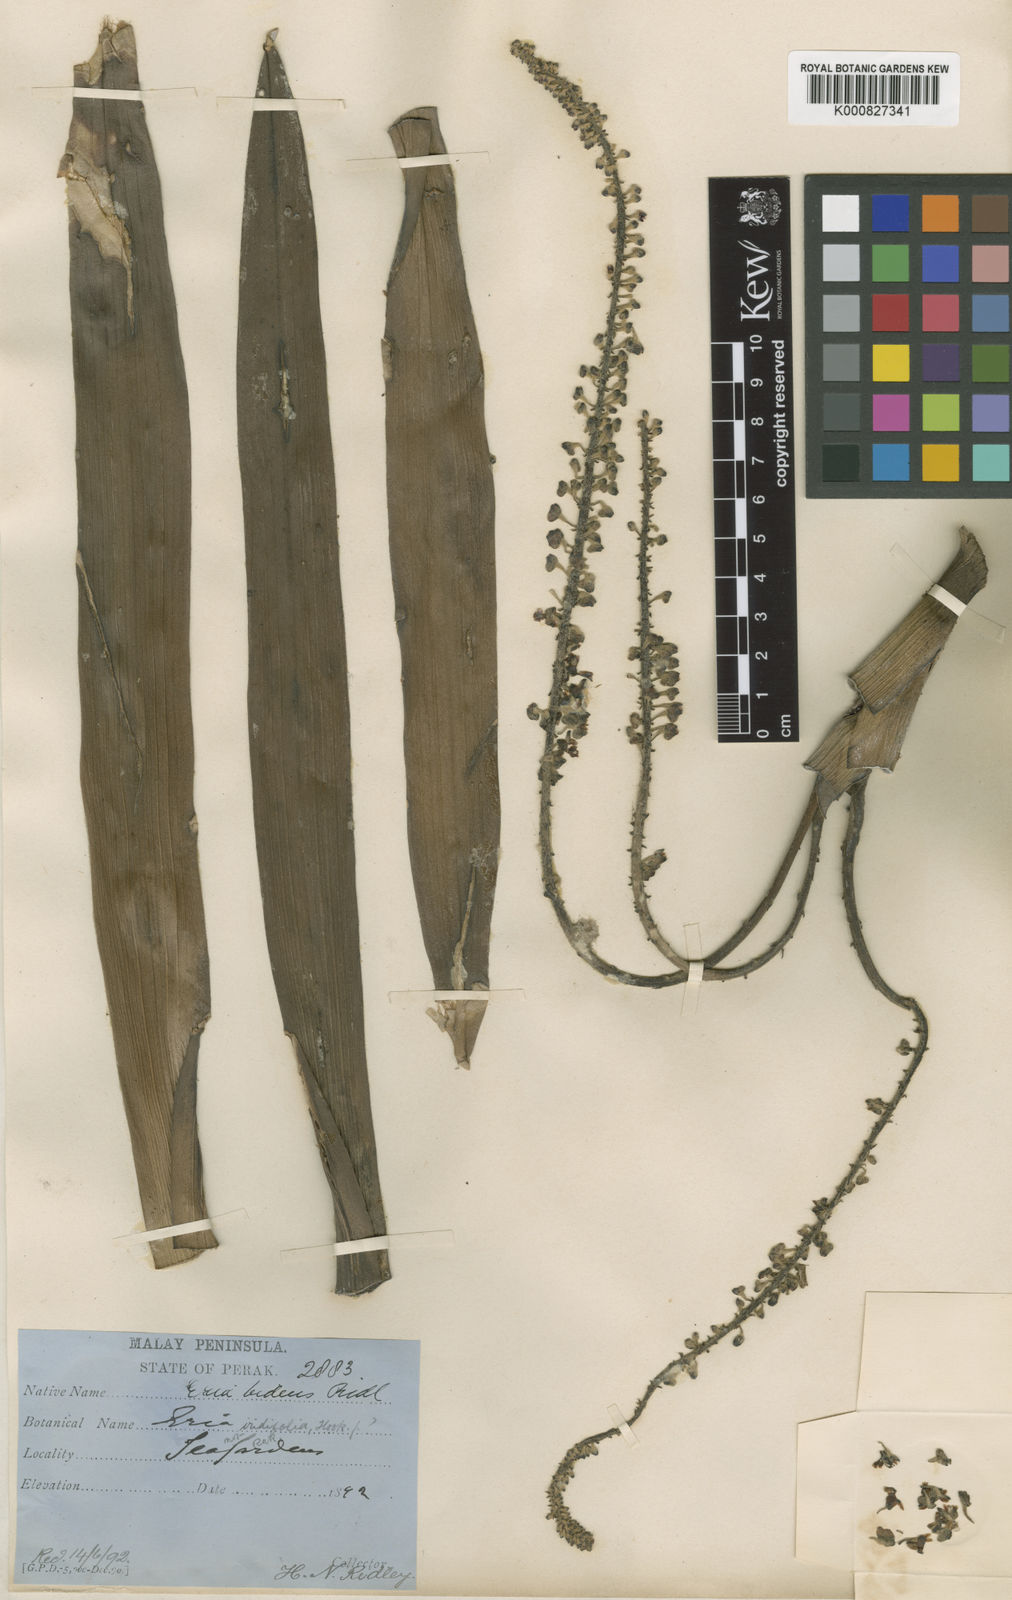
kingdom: Plantae
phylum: Tracheophyta
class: Liliopsida
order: Asparagales
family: Orchidaceae
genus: Mycaranthes
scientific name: Mycaranthes latifolia
